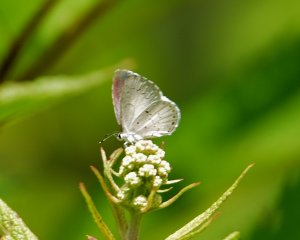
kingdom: Animalia
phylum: Arthropoda
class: Insecta
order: Lepidoptera
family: Lycaenidae
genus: Cyaniris
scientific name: Cyaniris neglecta
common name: Summer Azure
